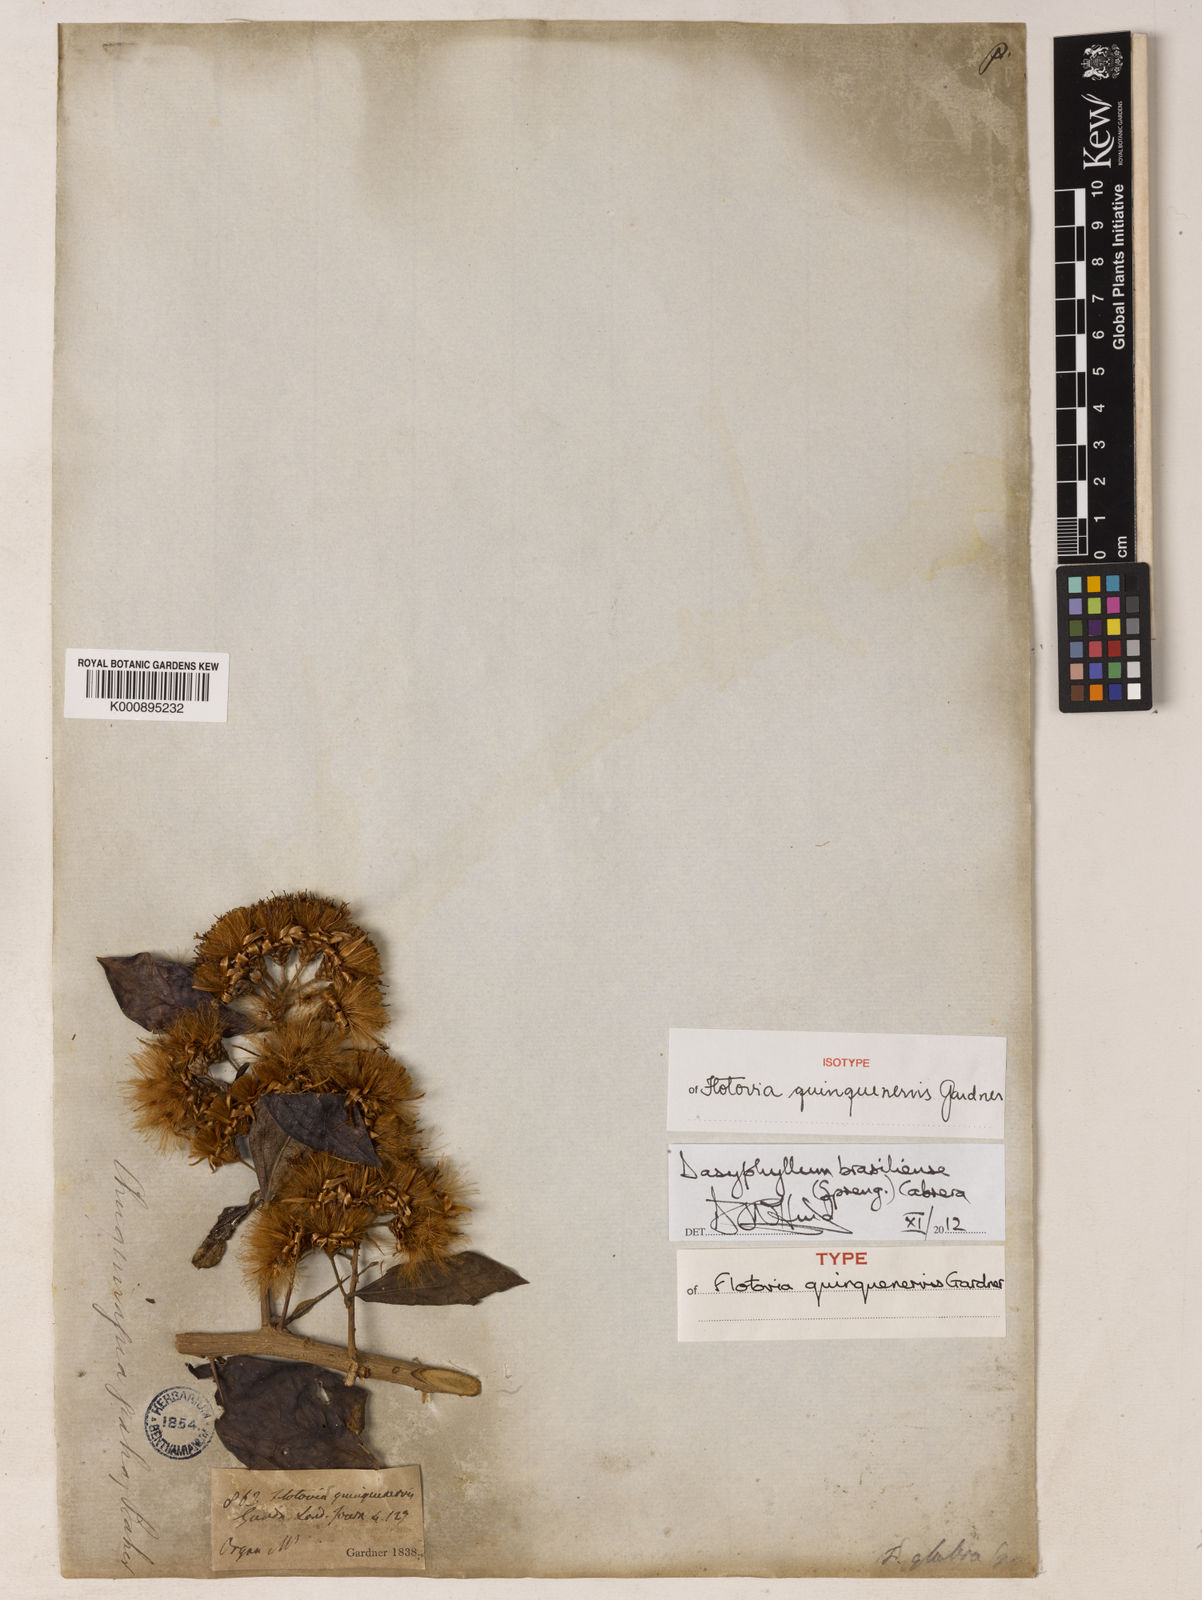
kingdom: Plantae
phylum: Tracheophyta
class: Magnoliopsida
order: Asterales
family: Asteraceae
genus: Dasyphyllum
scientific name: Dasyphyllum brasiliense
